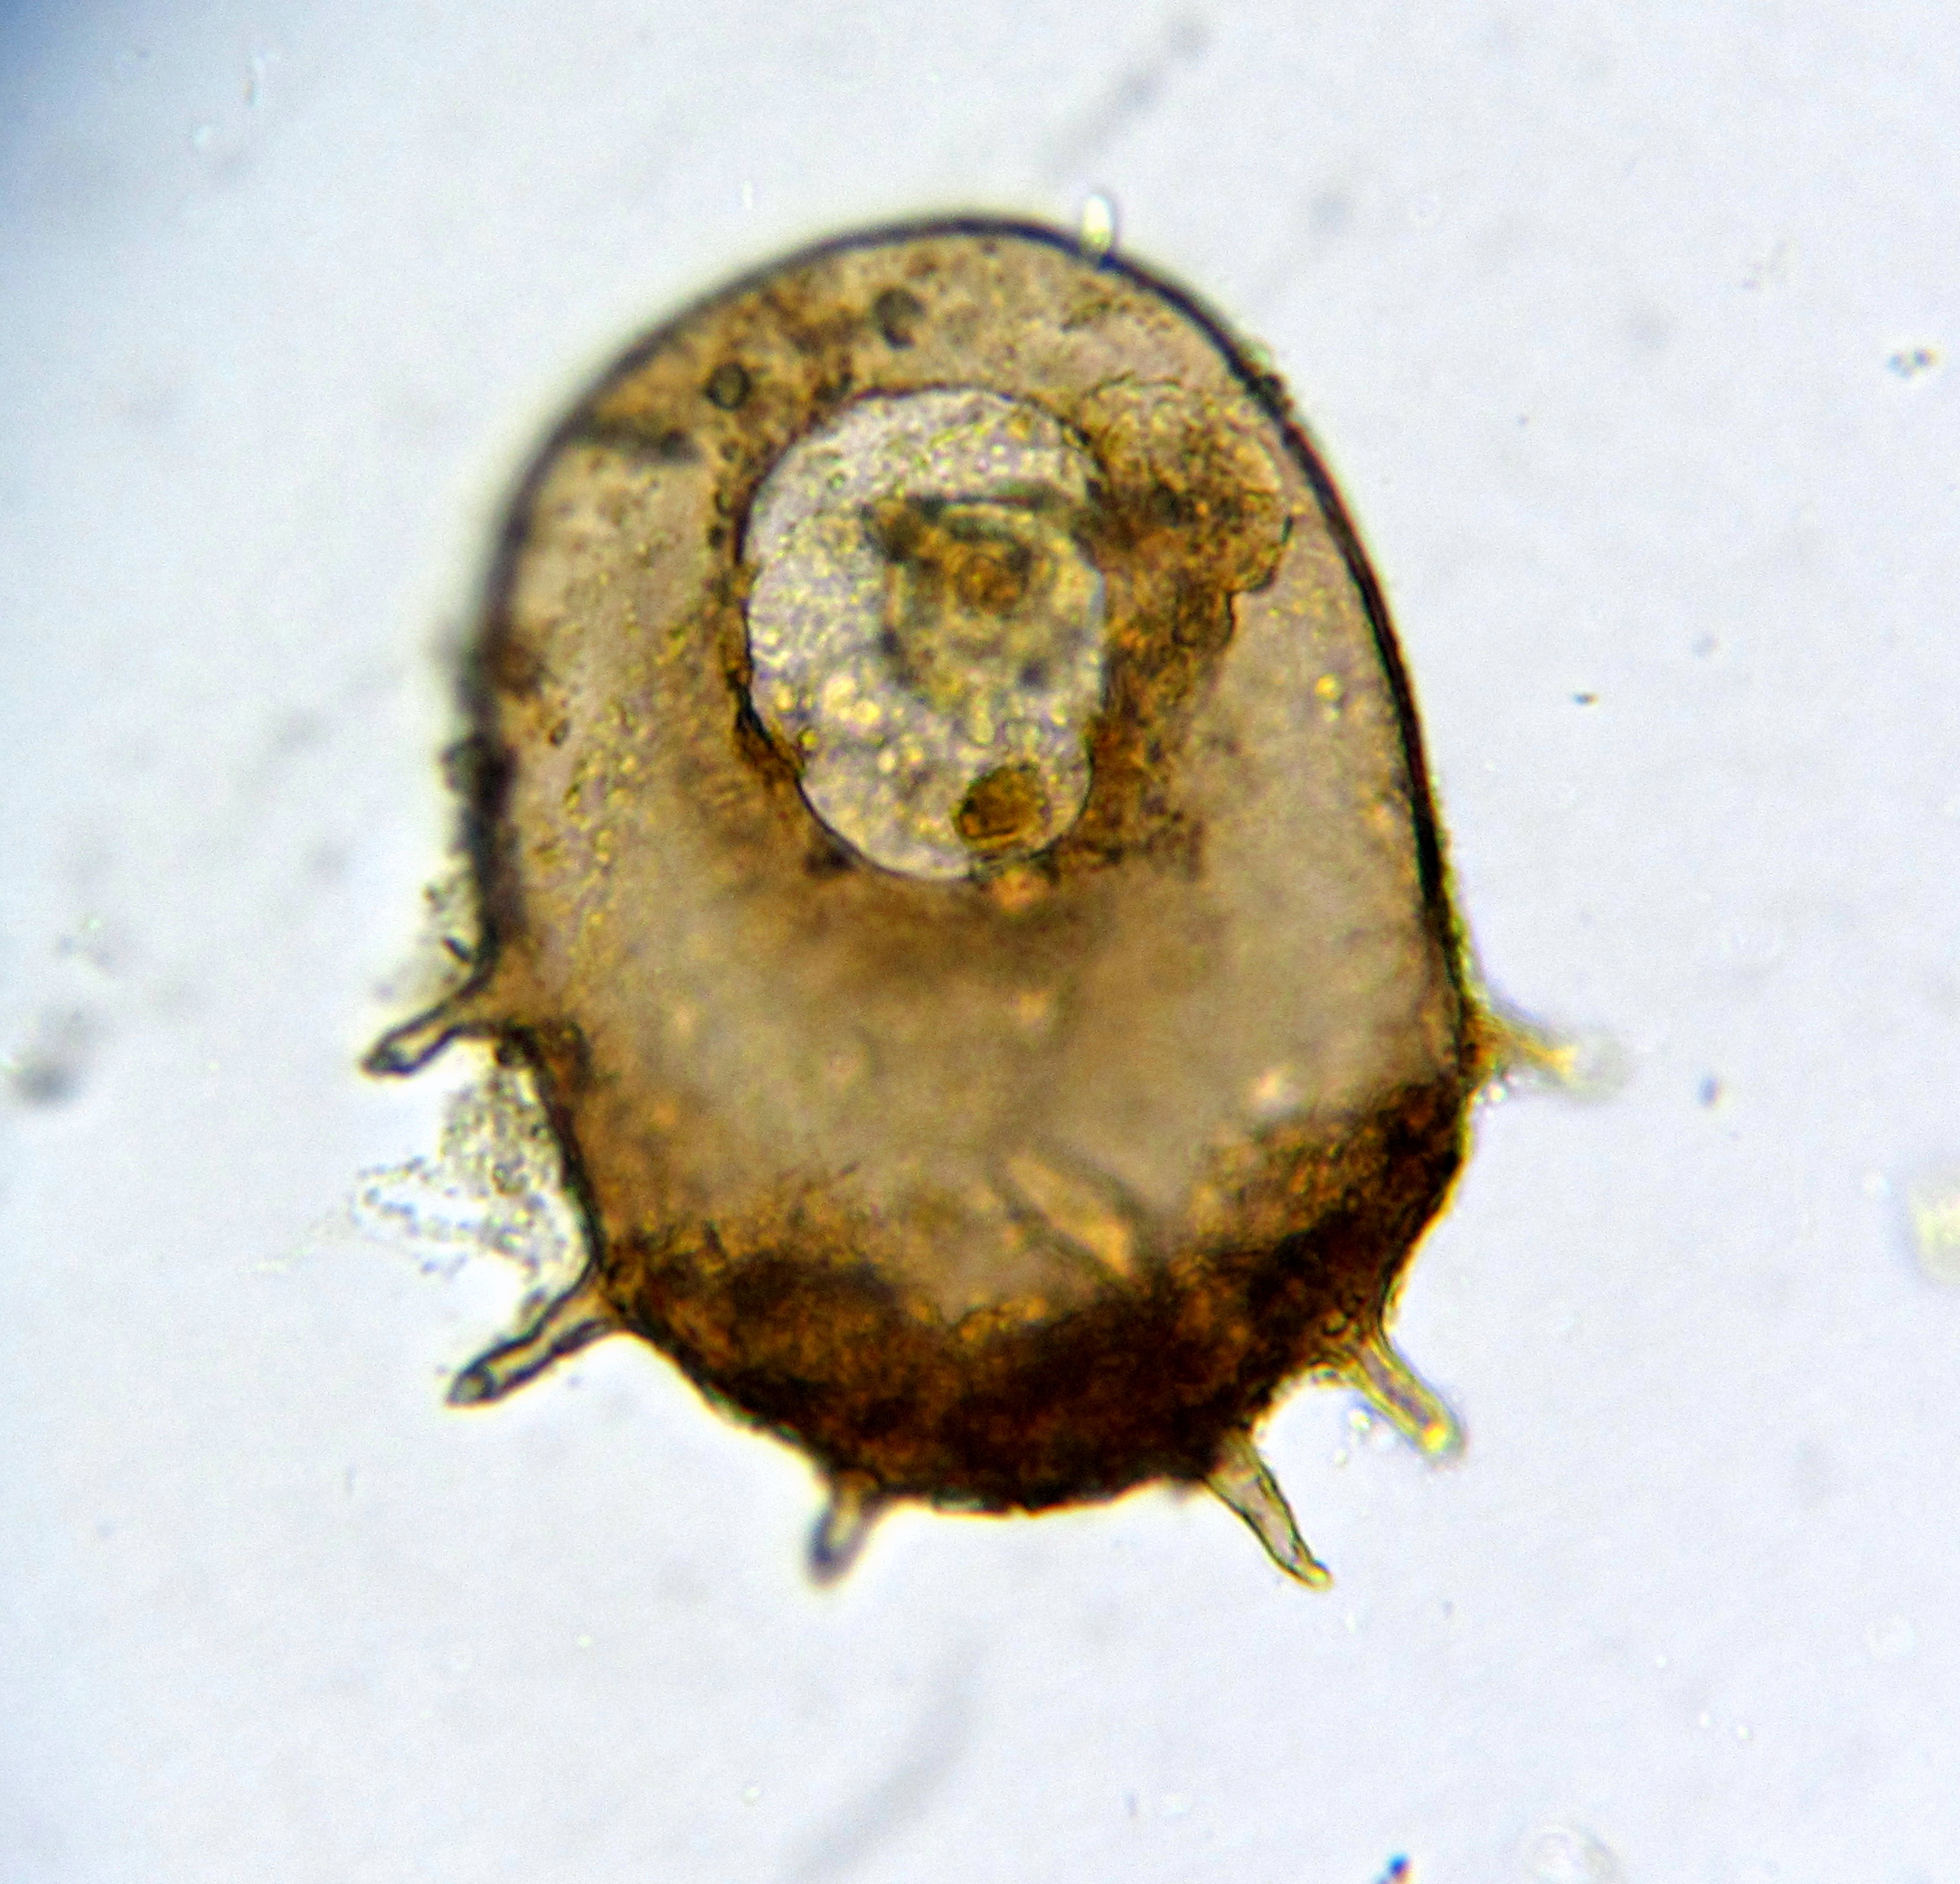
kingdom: Protozoa
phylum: Amoebozoa
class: Lobosa
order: Arcellinida
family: Centropyxidae
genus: Centropyxis
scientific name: Centropyxis
